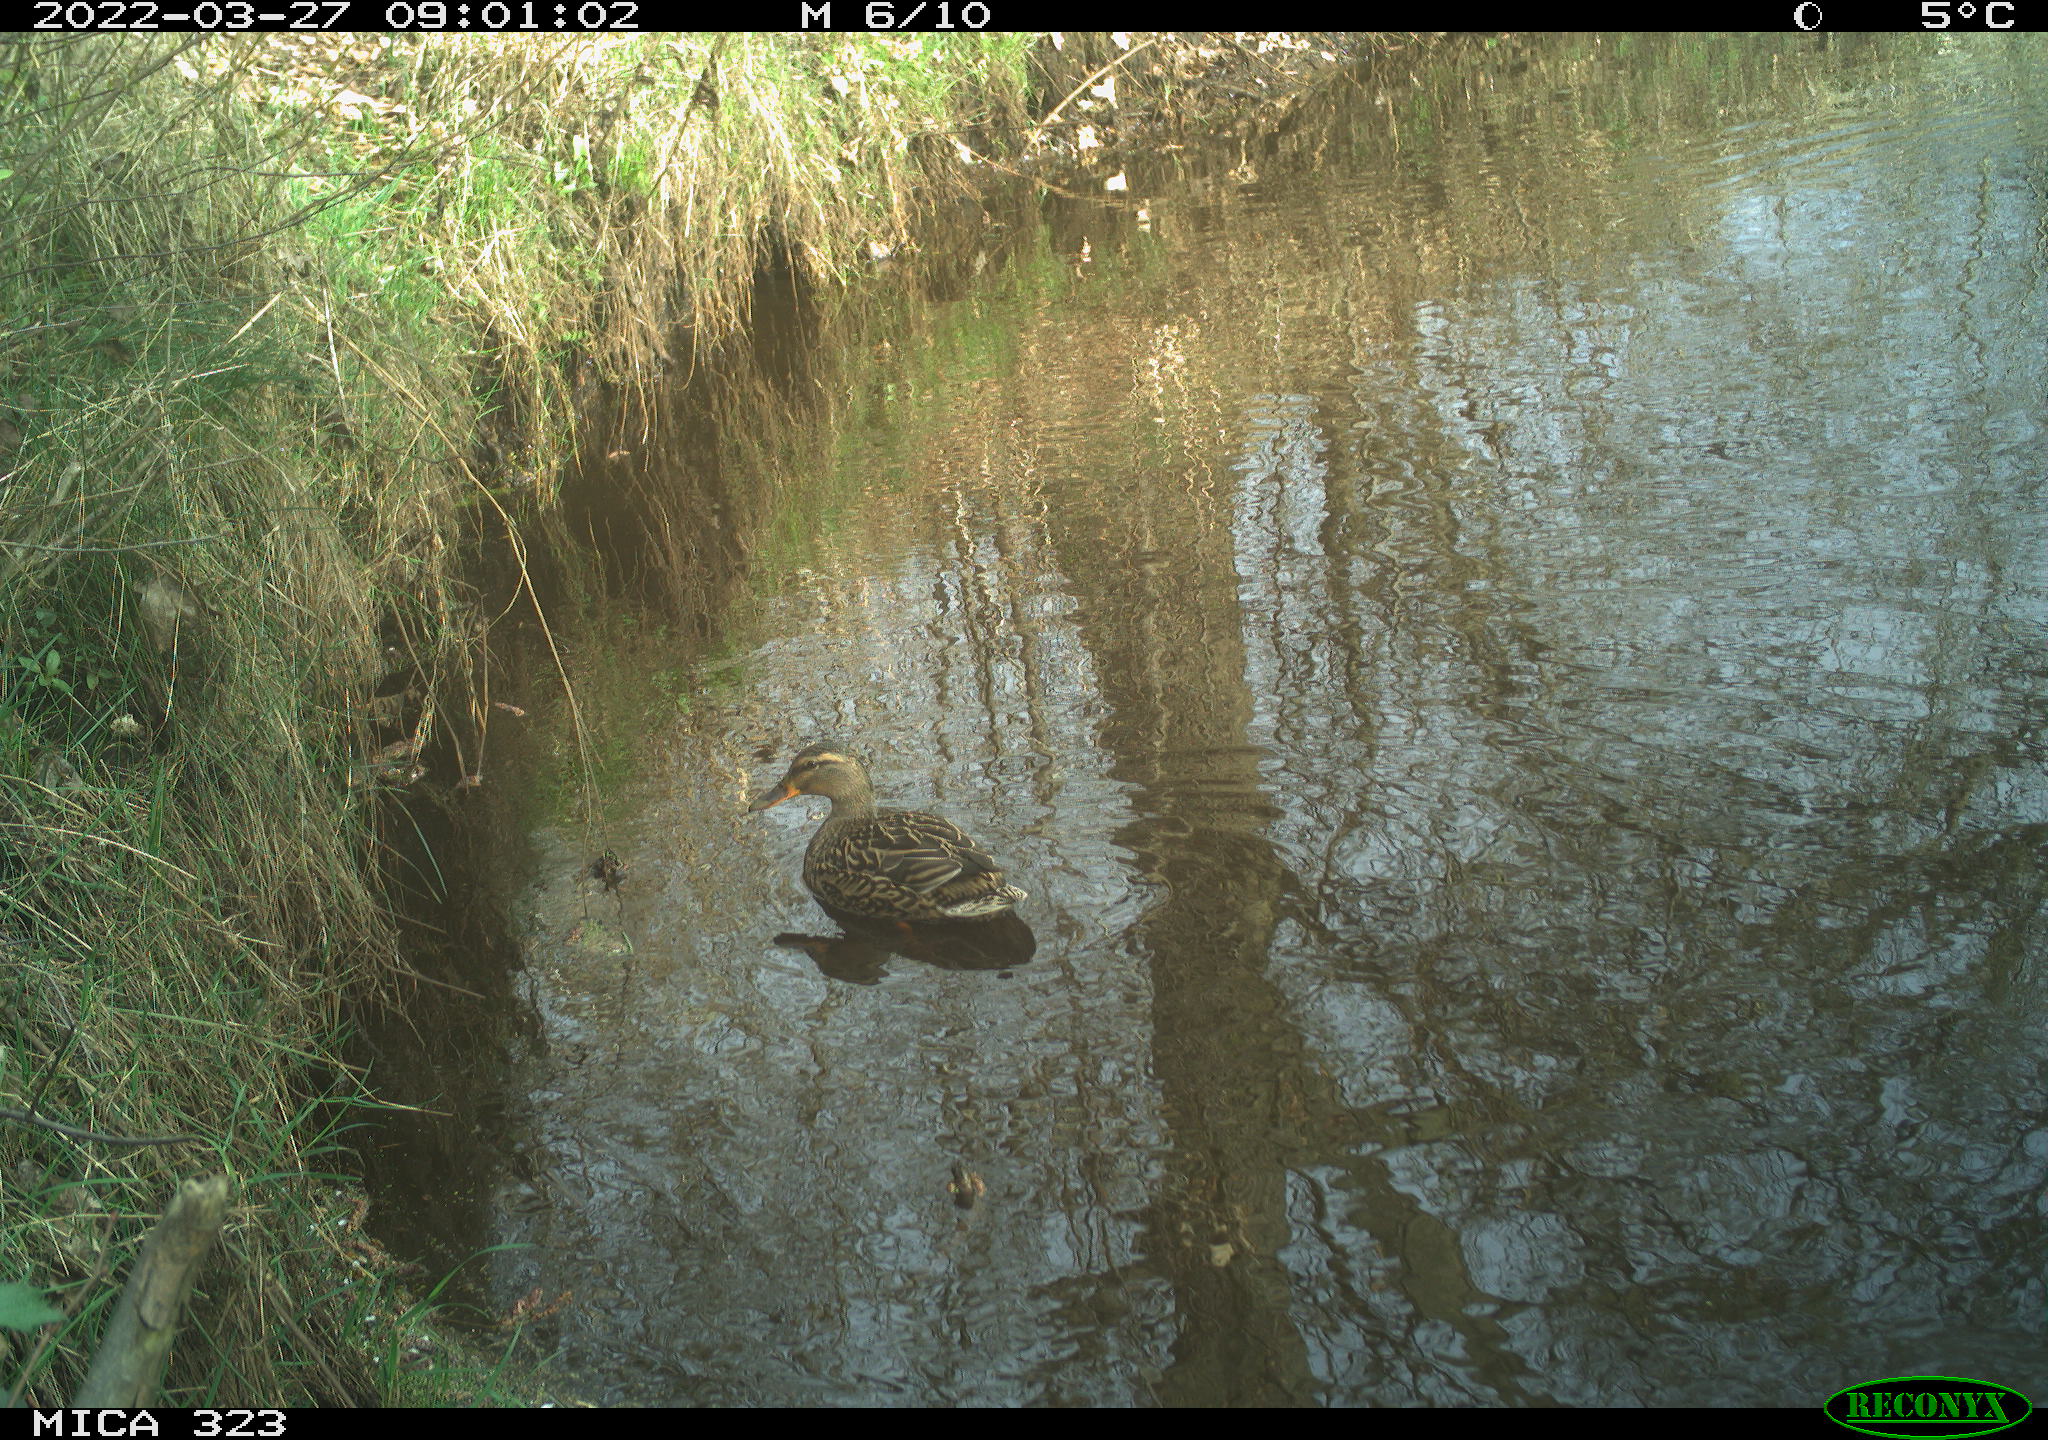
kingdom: Animalia
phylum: Chordata
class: Aves
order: Anseriformes
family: Anatidae
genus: Anas
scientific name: Anas platyrhynchos
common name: Mallard
